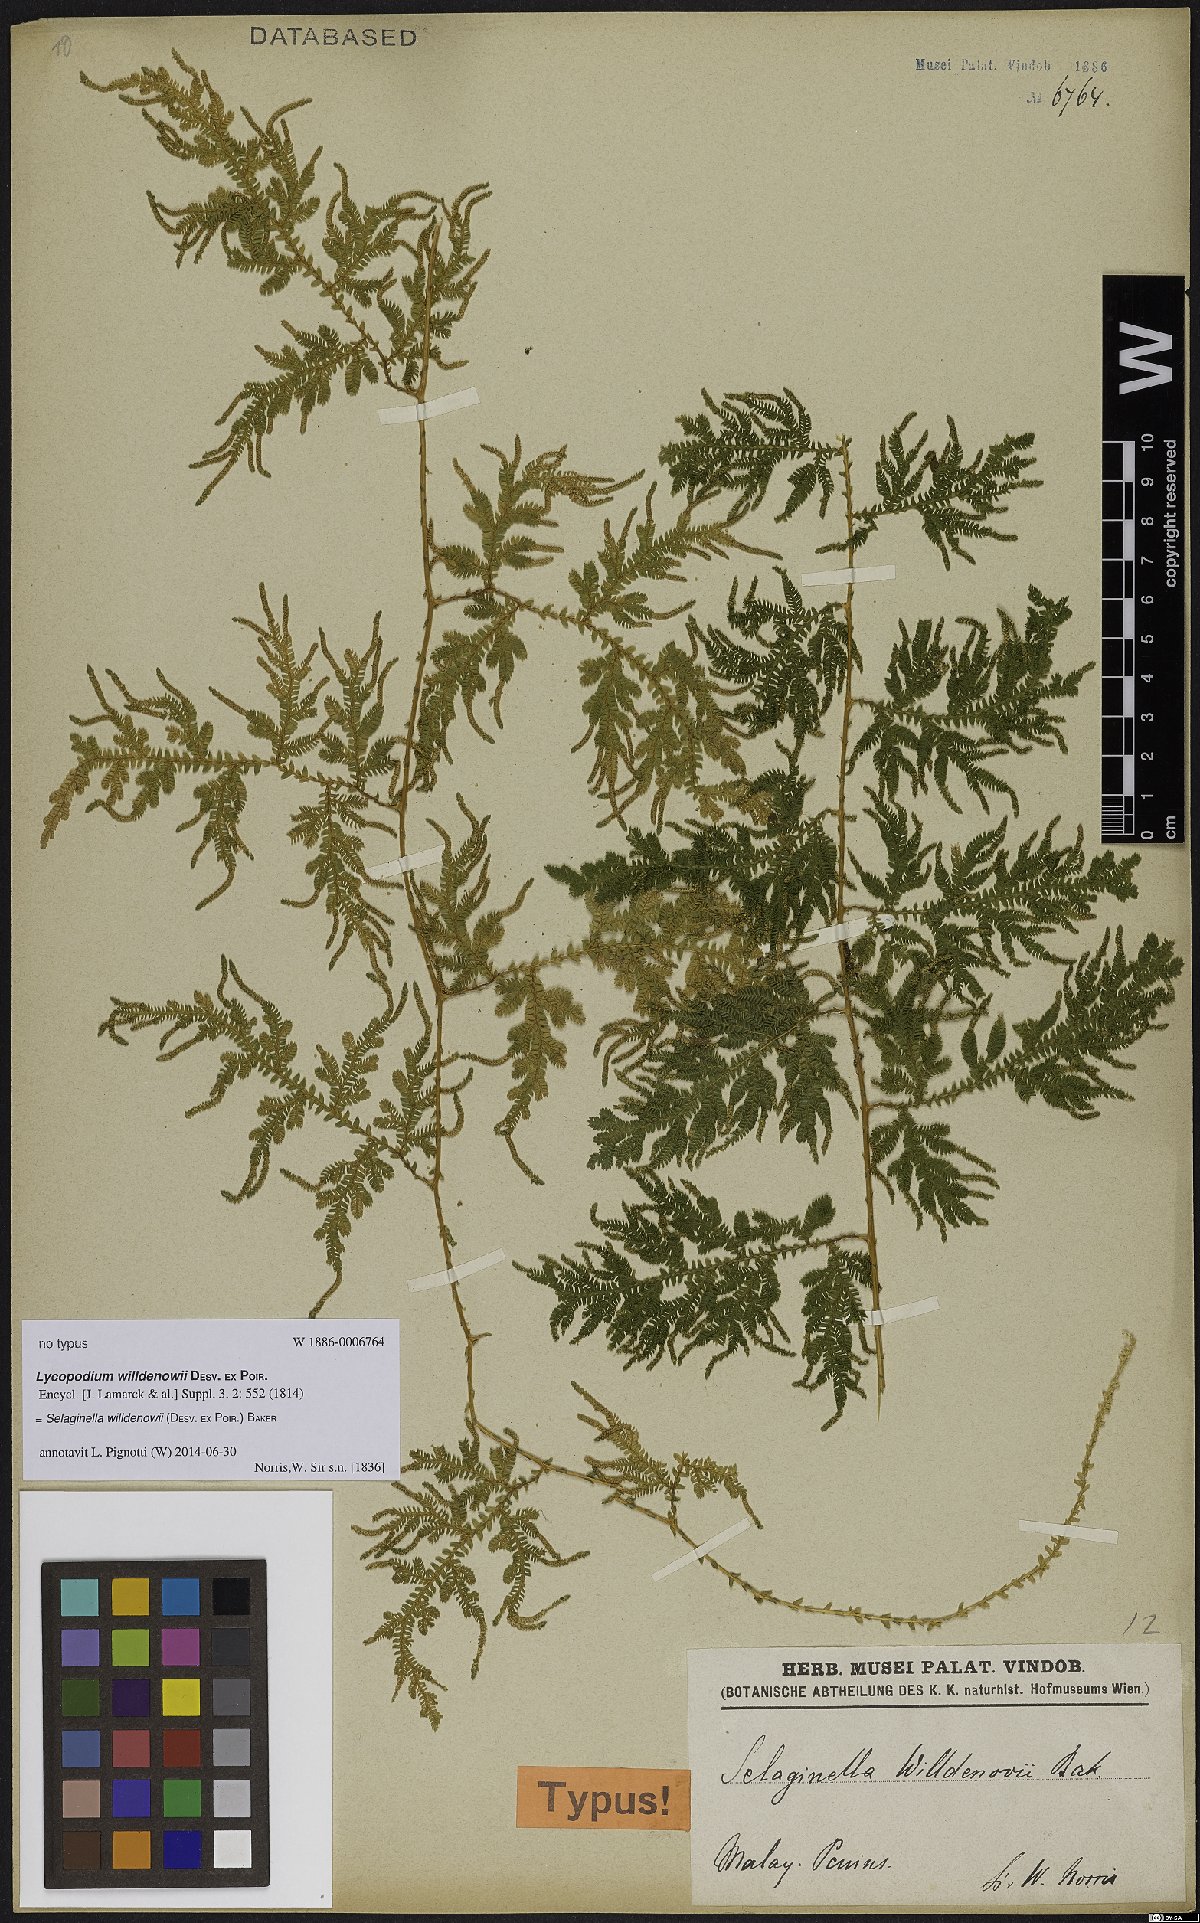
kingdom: Plantae
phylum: Tracheophyta
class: Lycopodiopsida
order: Selaginellales
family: Selaginellaceae
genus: Selaginella
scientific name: Selaginella willdenowii
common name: Willdenow's spikemoss
